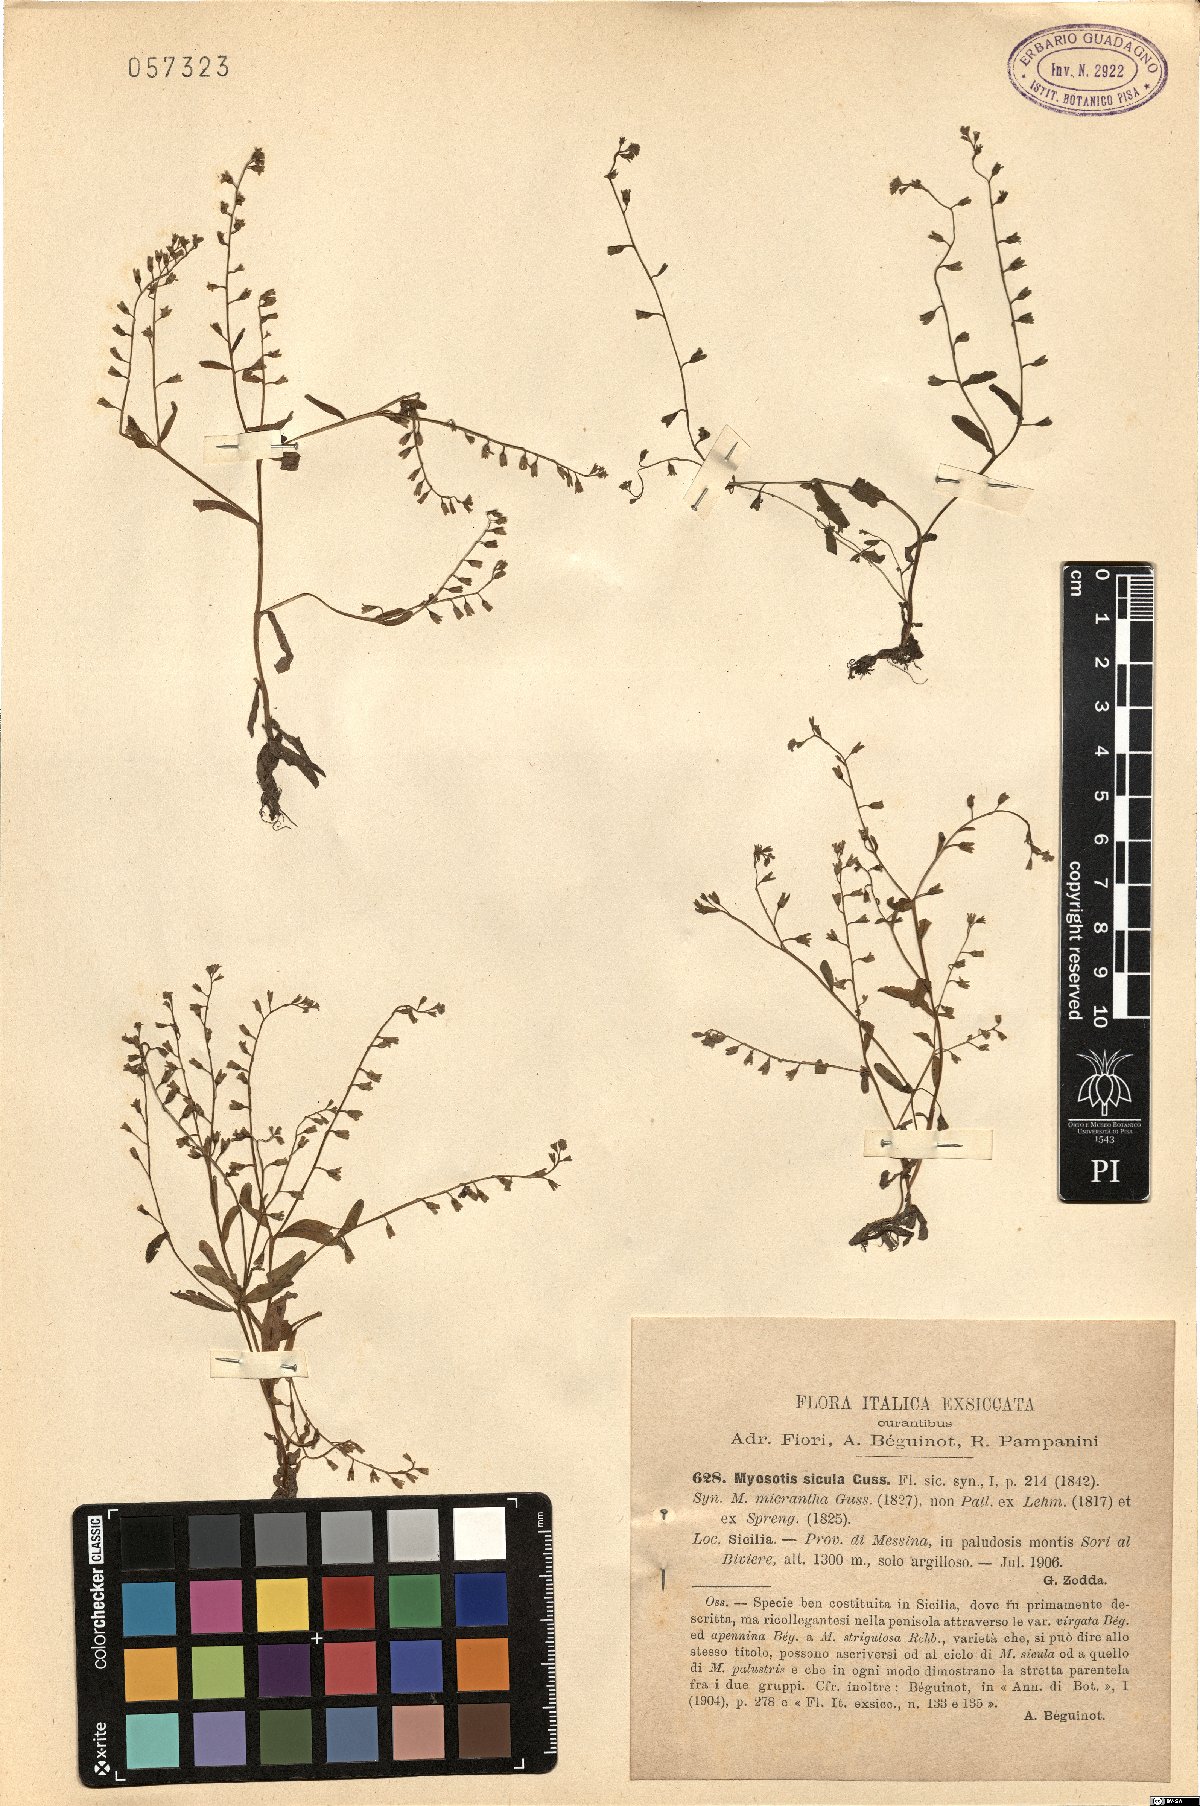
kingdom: Plantae
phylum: Tracheophyta
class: Magnoliopsida
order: Boraginales
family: Boraginaceae
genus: Myosotis
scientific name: Myosotis sicula
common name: Jersey forget-me-not
